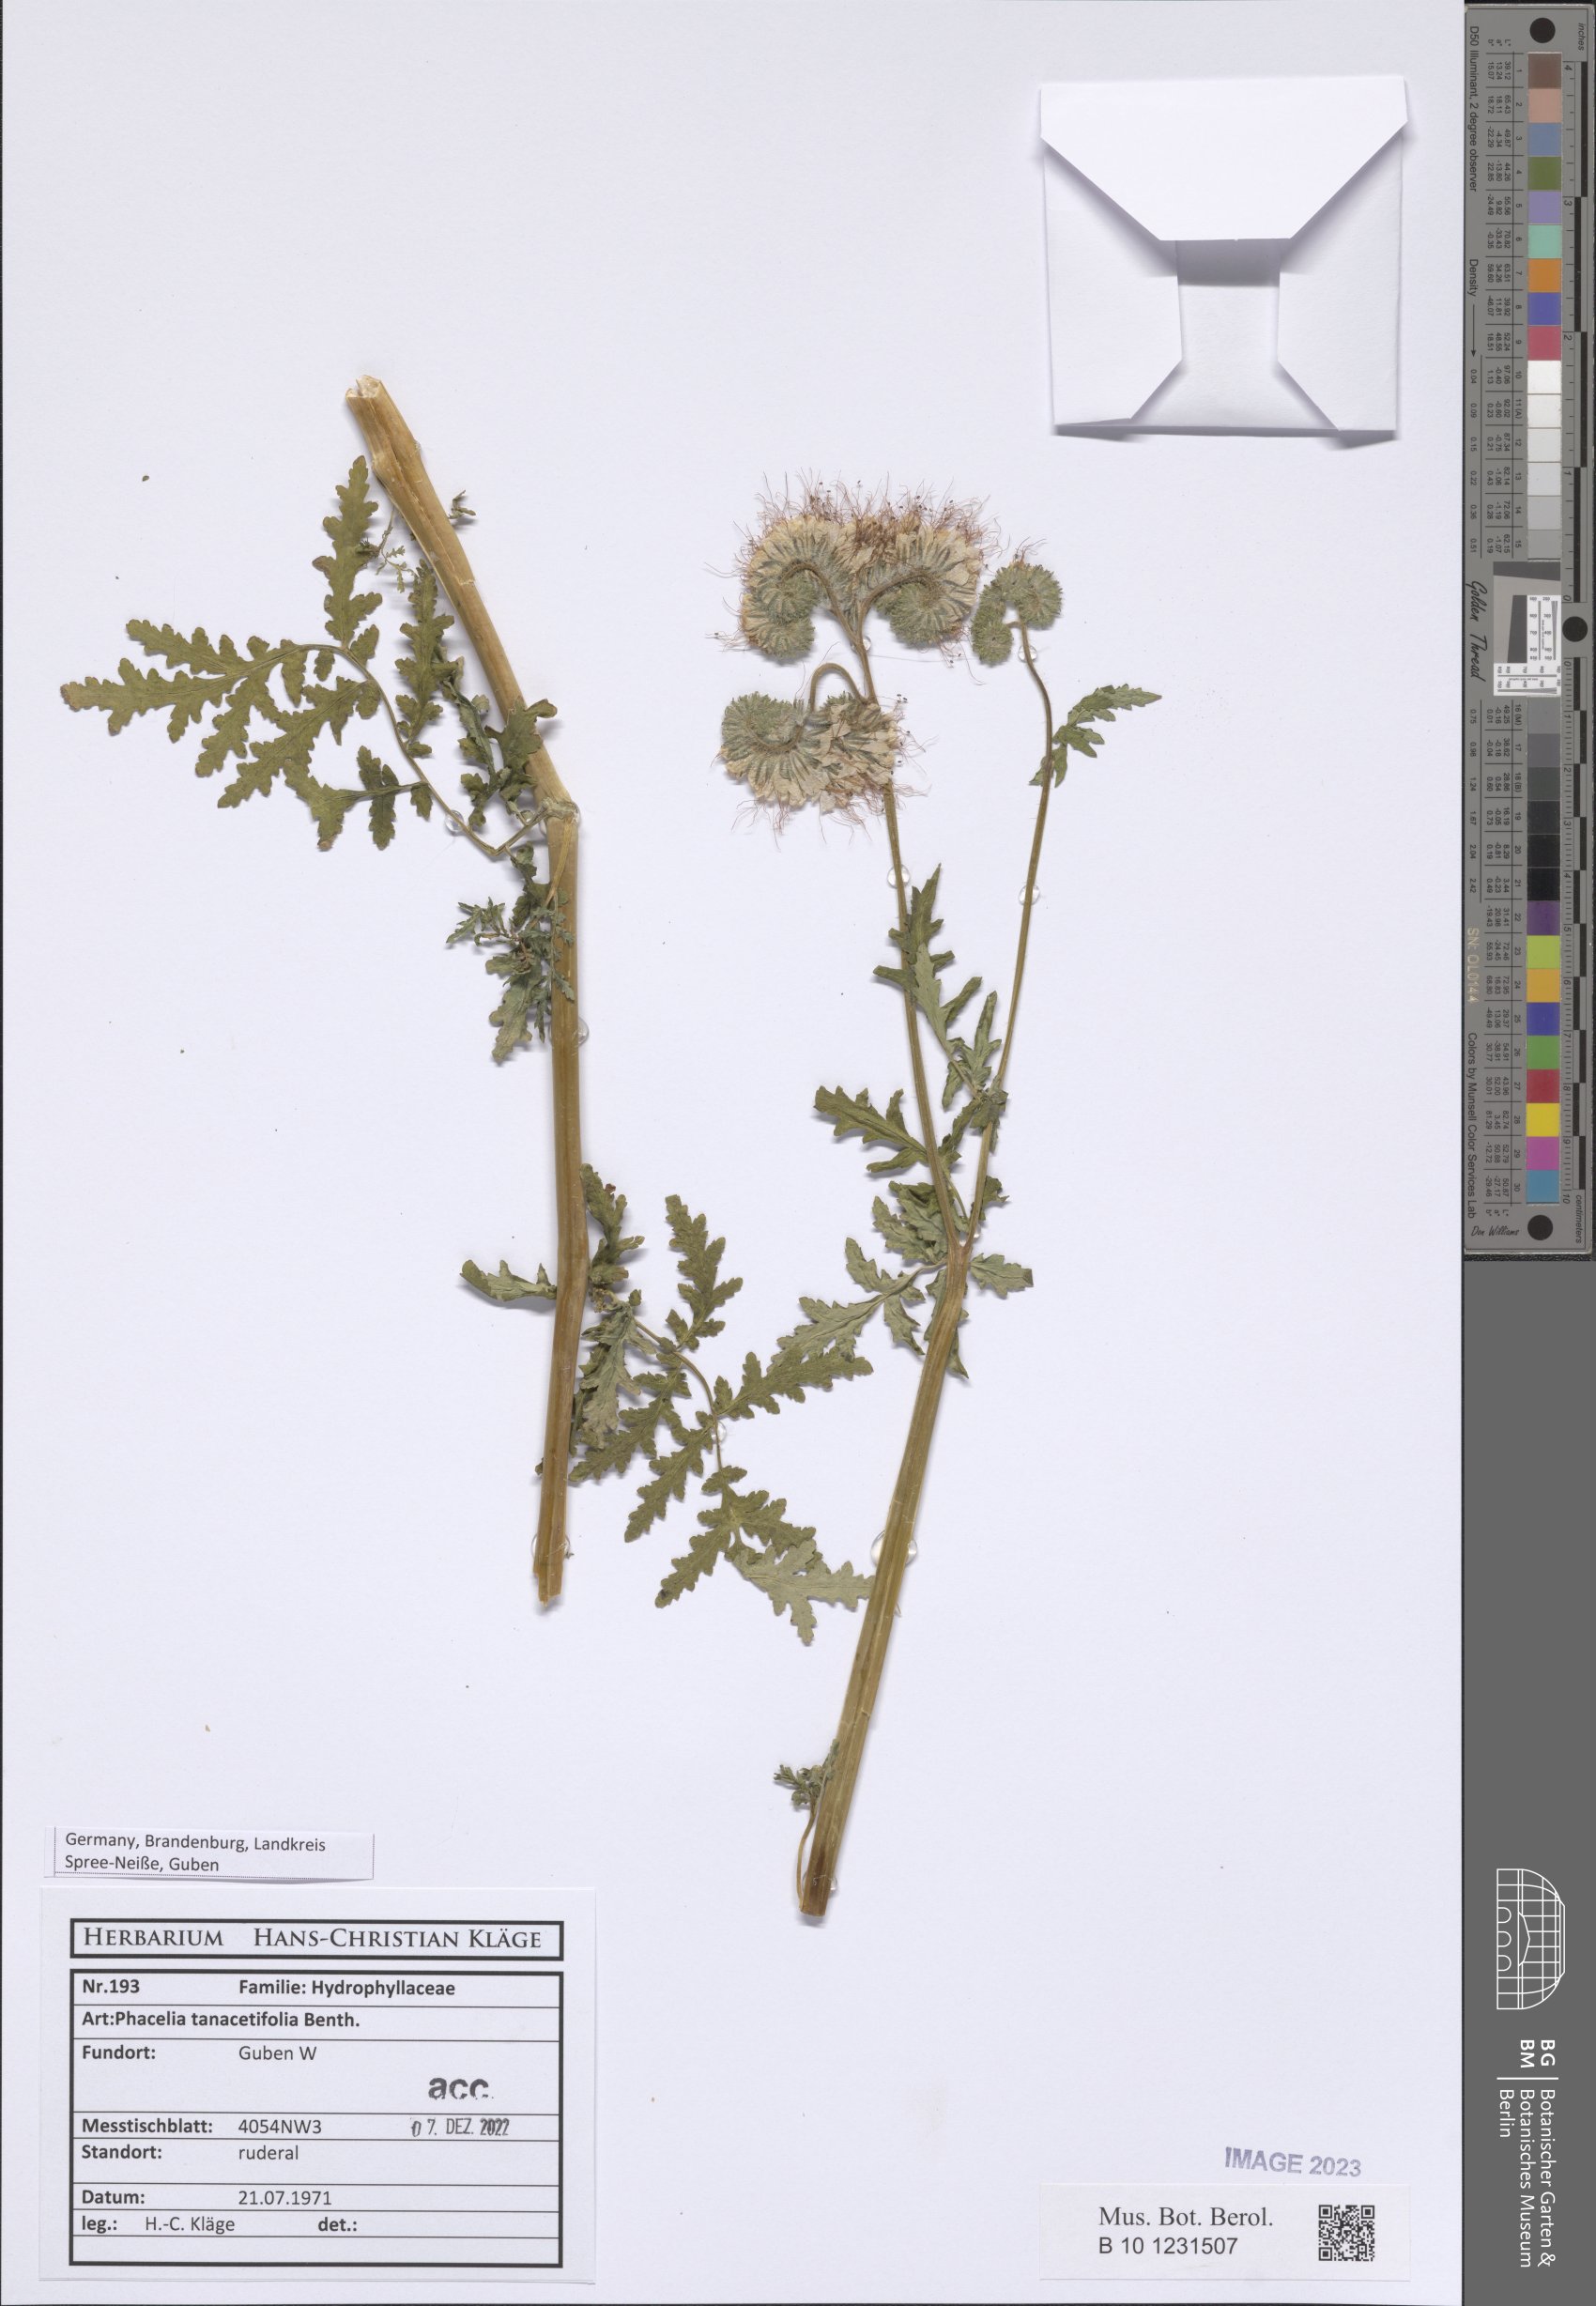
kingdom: Plantae
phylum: Tracheophyta
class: Magnoliopsida
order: Boraginales
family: Hydrophyllaceae
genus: Phacelia
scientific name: Phacelia tanacetifolia
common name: Phacelia
